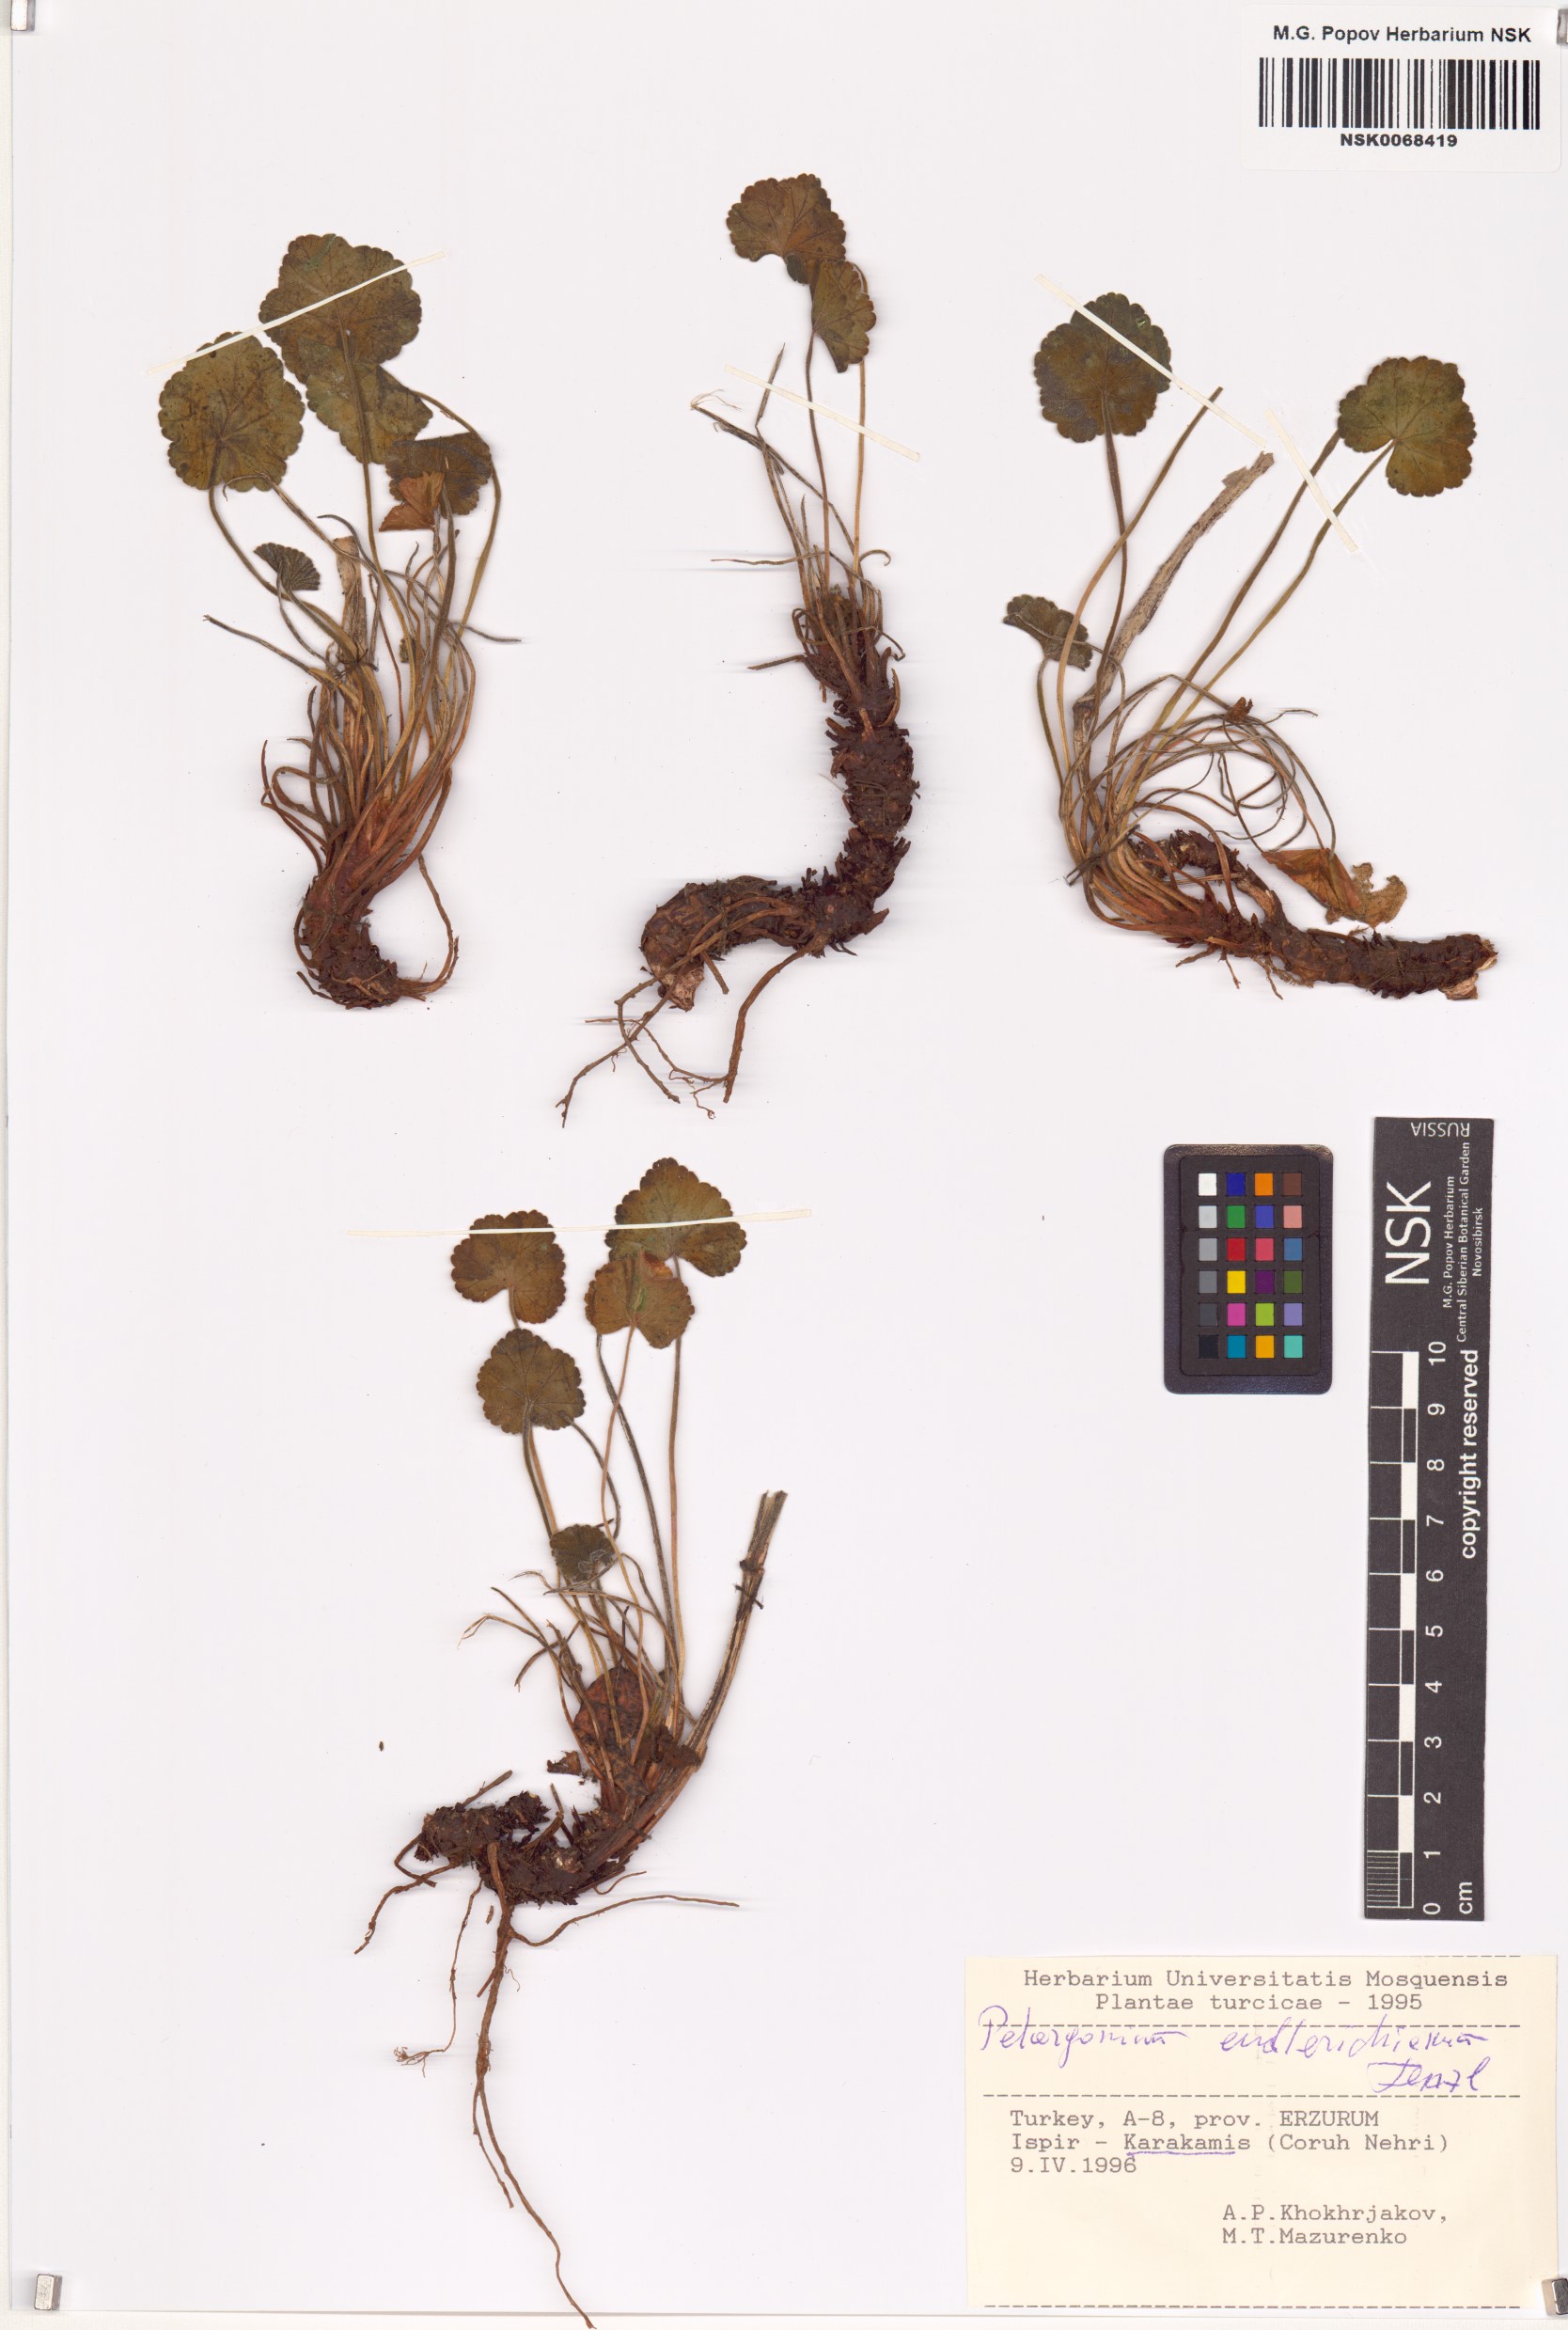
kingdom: Plantae
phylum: Tracheophyta
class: Magnoliopsida
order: Geraniales
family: Geraniaceae
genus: Pelargonium
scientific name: Pelargonium endlicherianum
